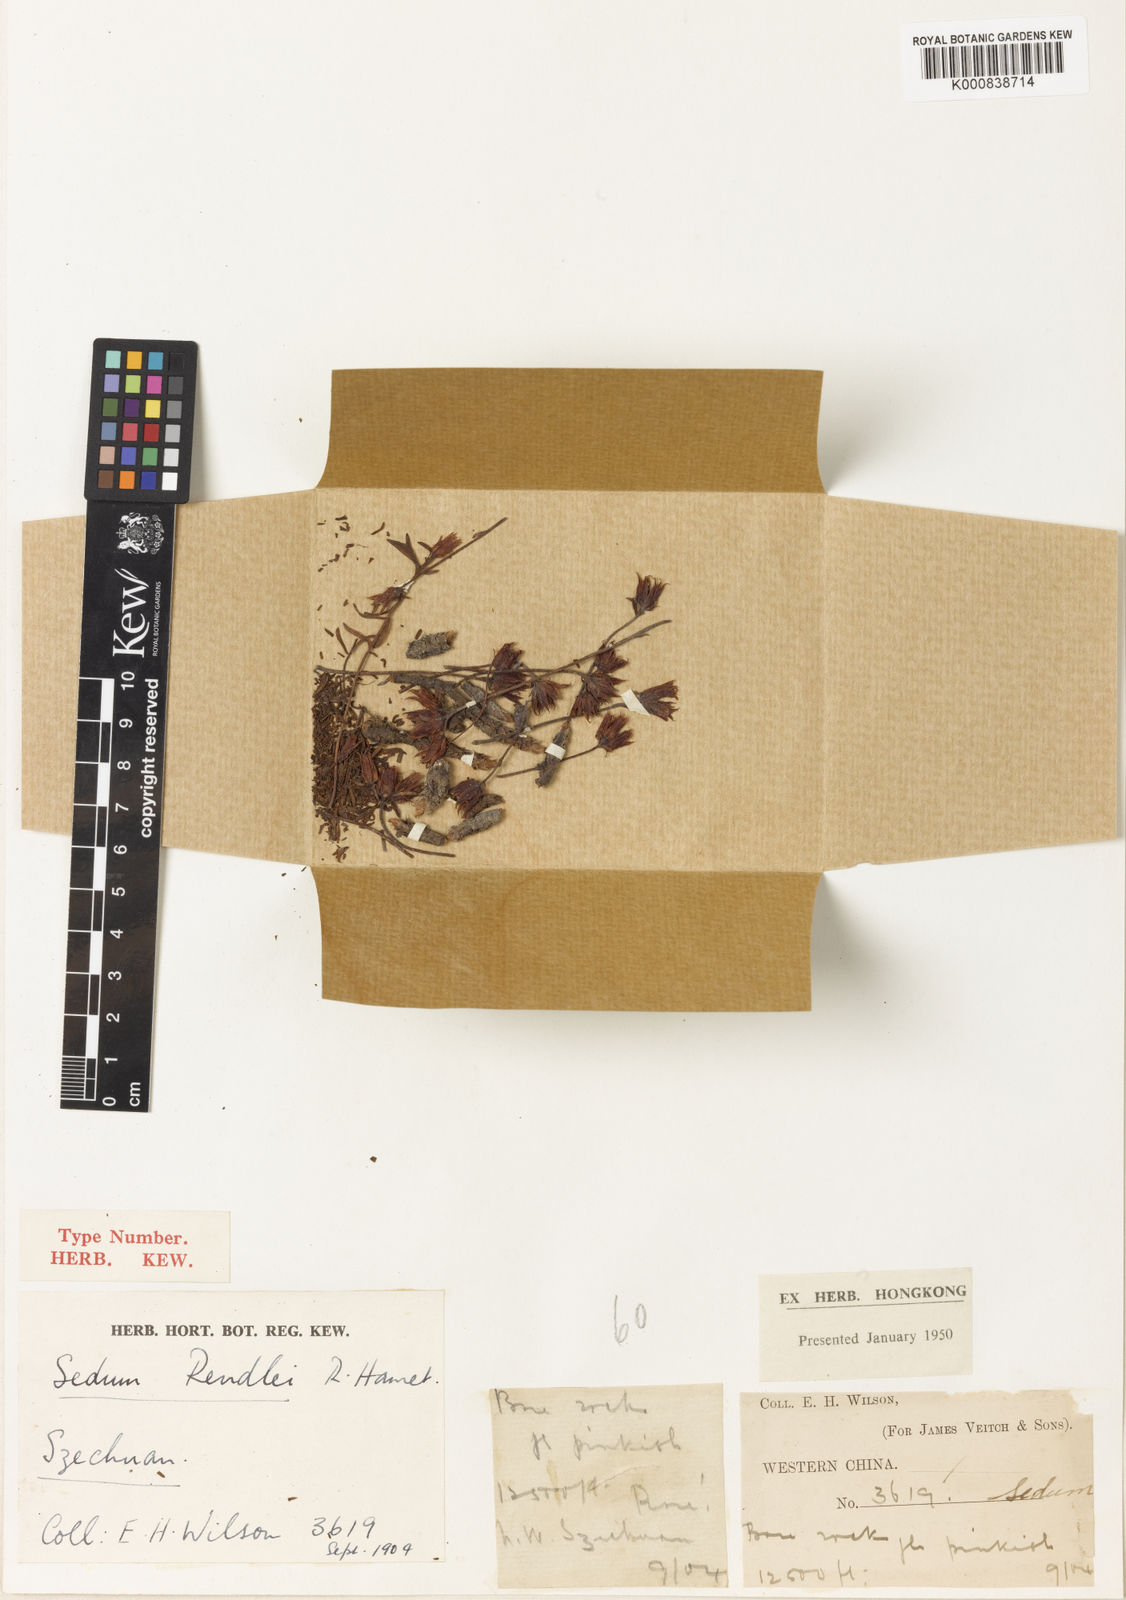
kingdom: Plantae
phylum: Tracheophyta
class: Magnoliopsida
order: Saxifragales
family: Crassulaceae
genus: Rhodiola
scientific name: Rhodiola dumulosa
